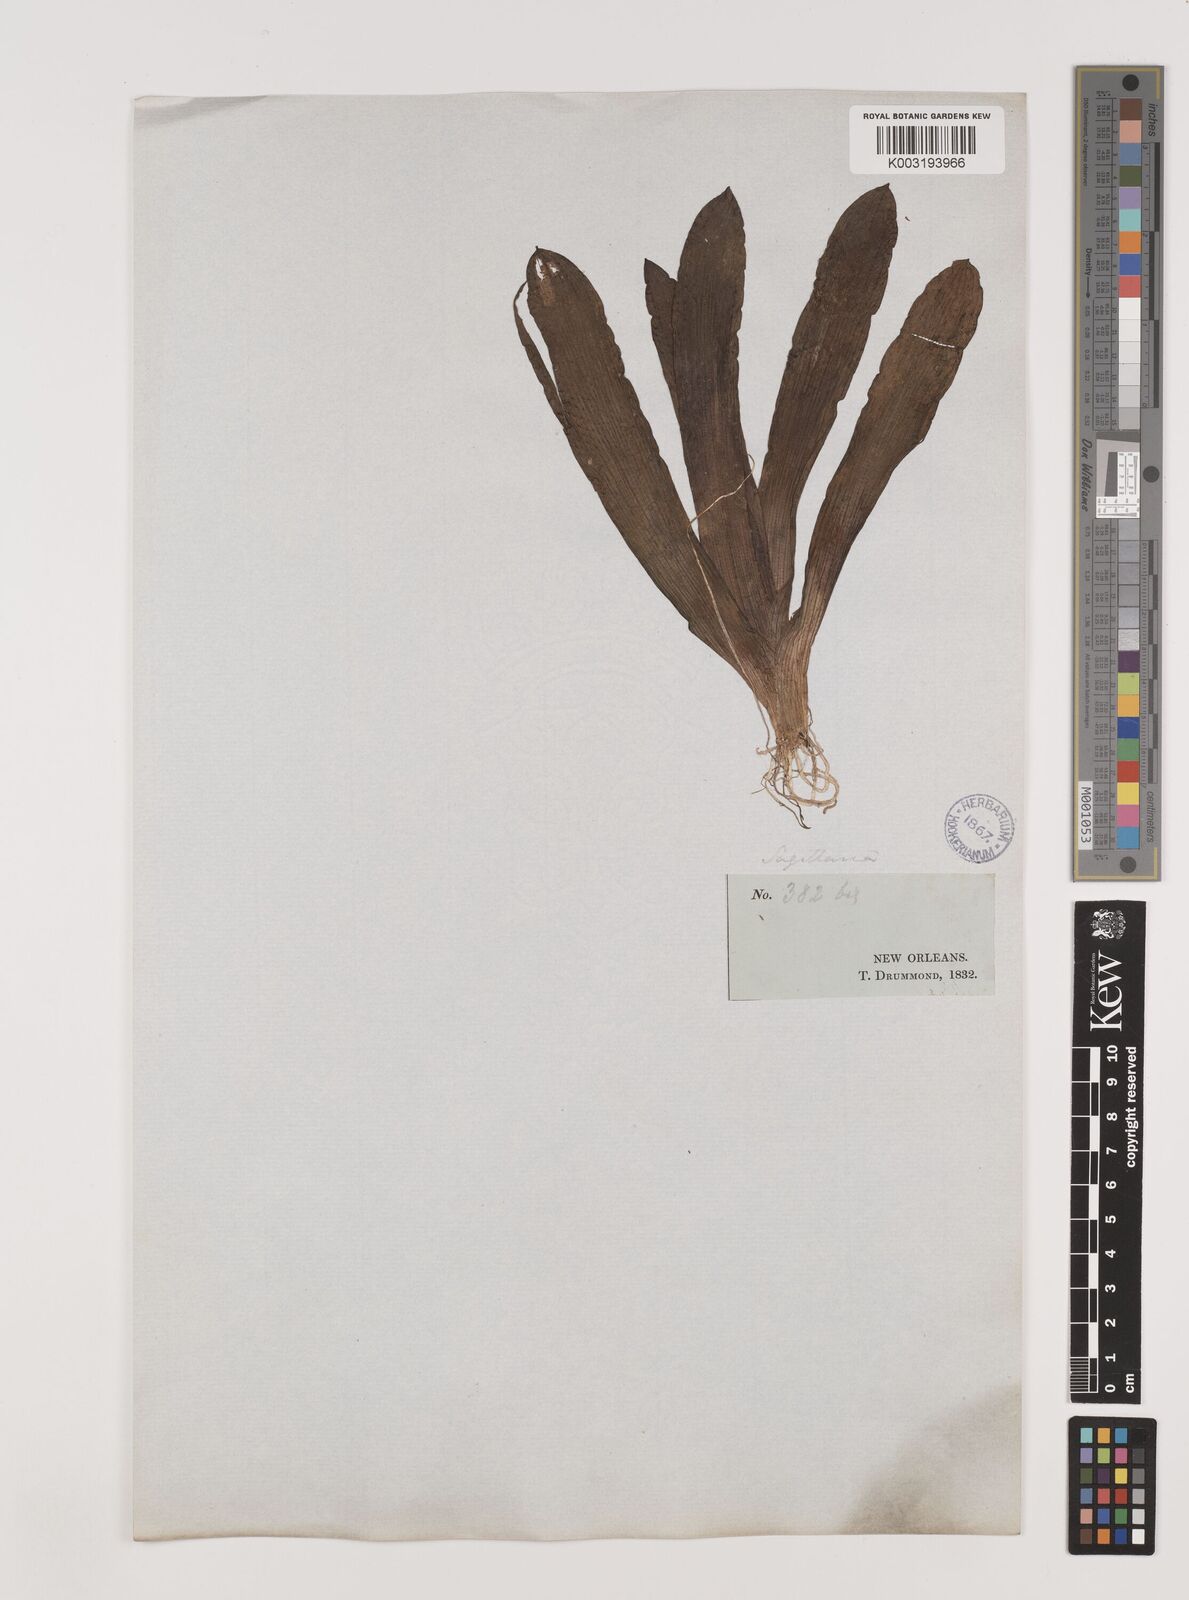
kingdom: Plantae
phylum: Tracheophyta
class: Liliopsida
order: Alismatales
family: Alismataceae
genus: Sagittaria
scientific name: Sagittaria sagittifolia
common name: Arrowhead
